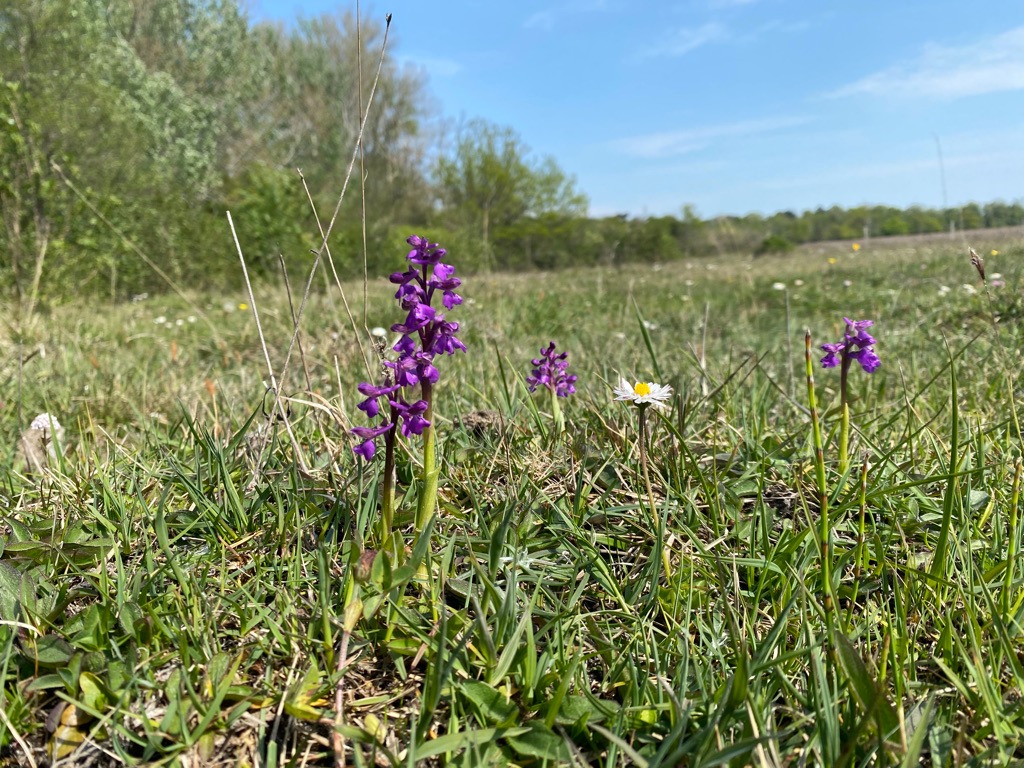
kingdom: Plantae
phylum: Tracheophyta
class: Liliopsida
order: Asparagales
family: Orchidaceae
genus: Anacamptis
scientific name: Anacamptis morio
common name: Salepgøgeurt
